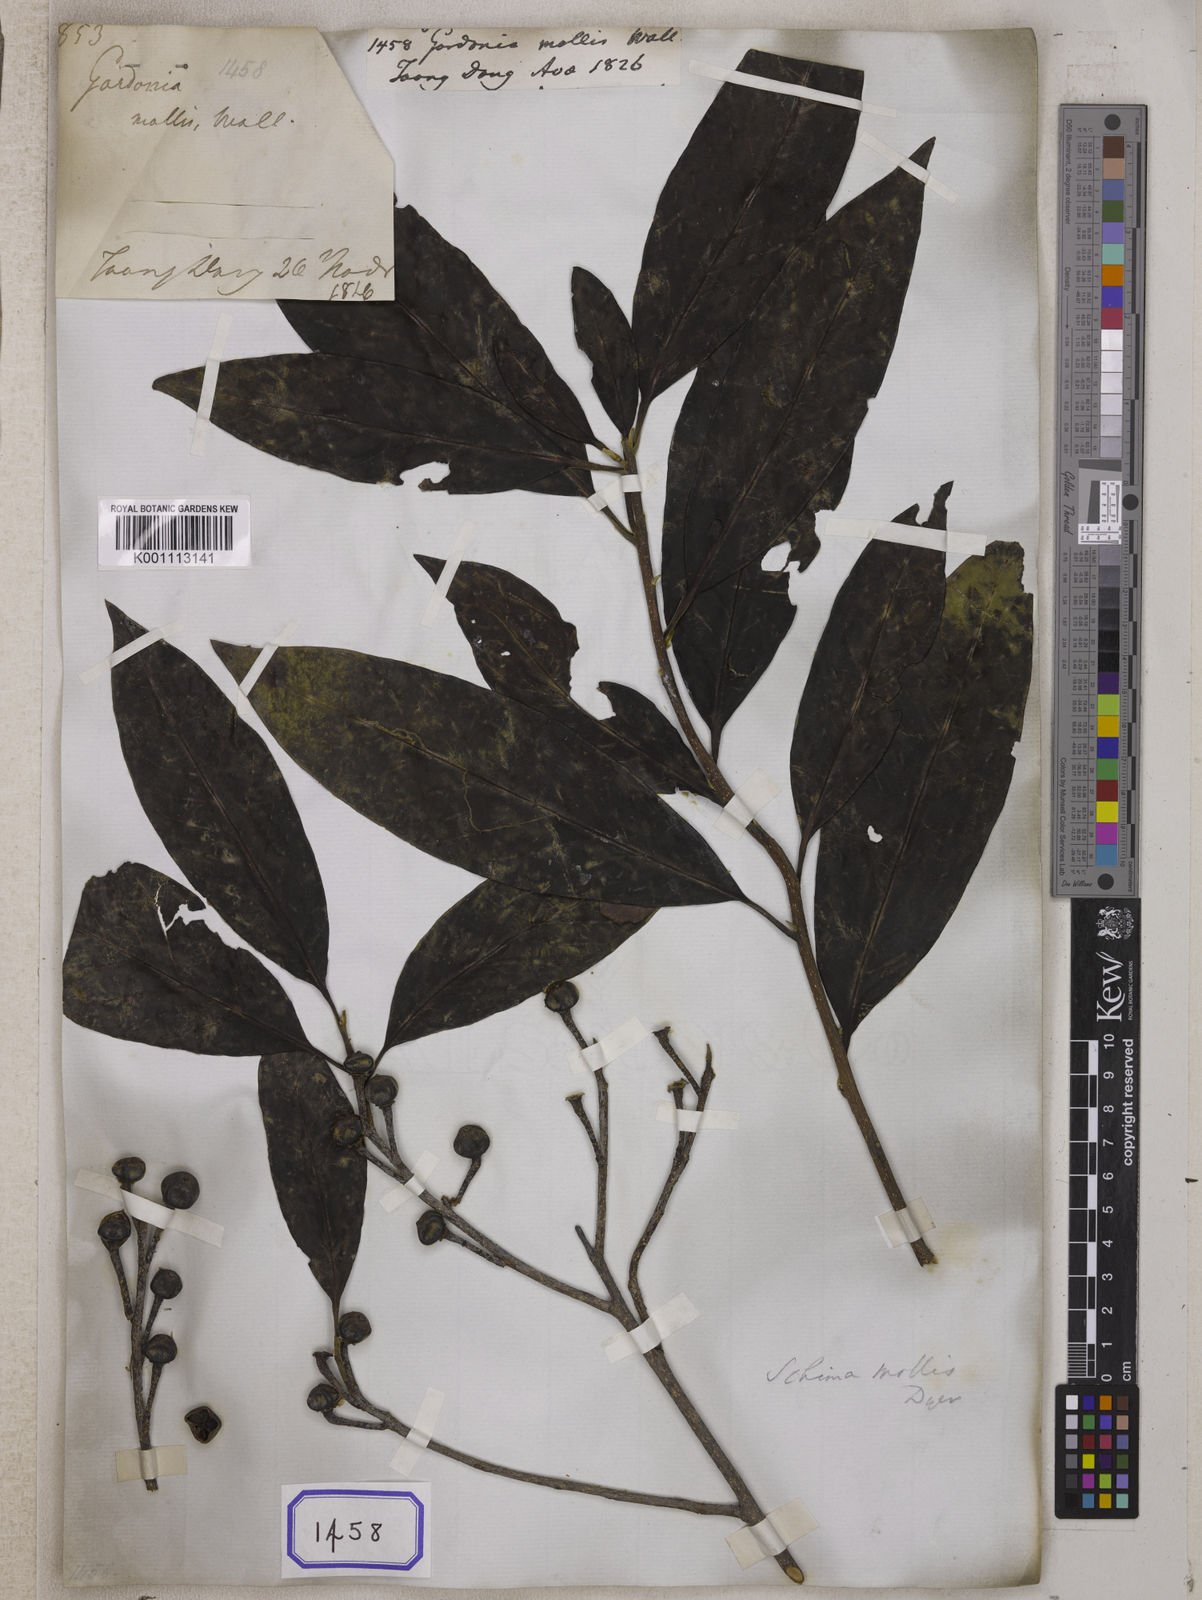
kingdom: Plantae
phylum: Tracheophyta
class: Magnoliopsida
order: Ericales
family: Theaceae
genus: Schima
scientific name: Schima wallichii
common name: Schima
